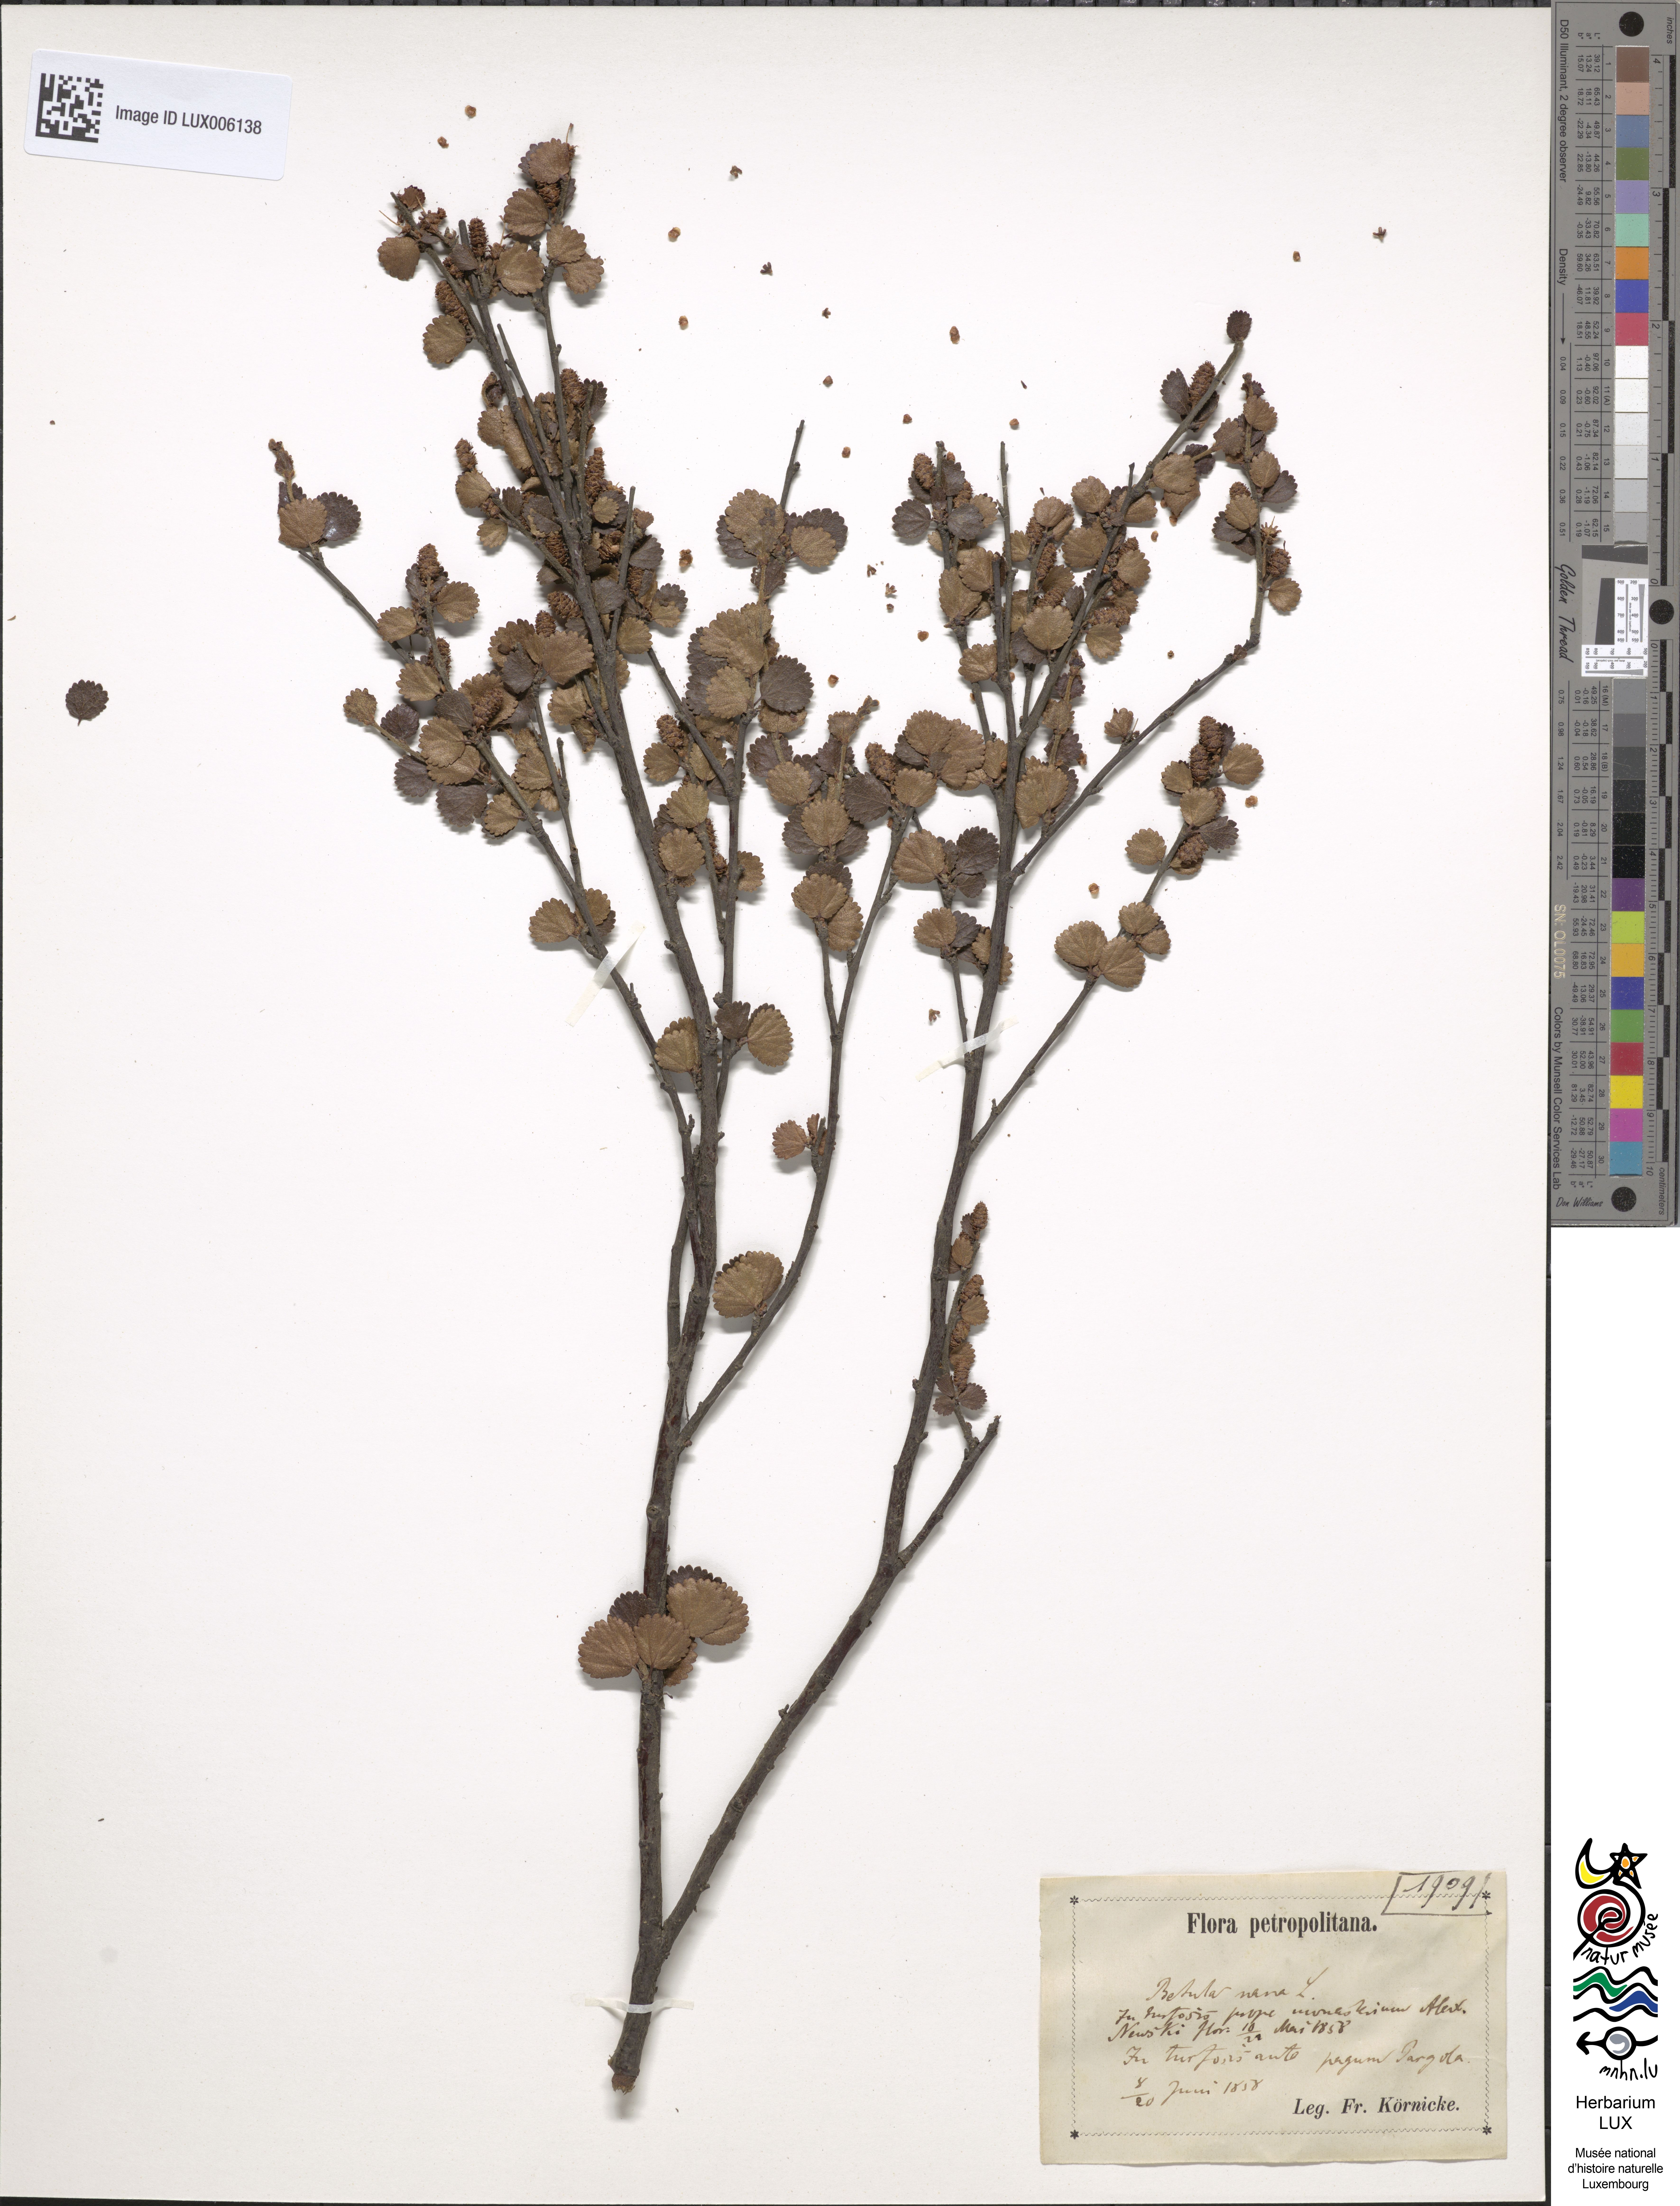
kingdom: Plantae
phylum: Tracheophyta
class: Magnoliopsida
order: Fagales
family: Betulaceae
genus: Betula
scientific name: Betula nana
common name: Arctic dwarf birch
